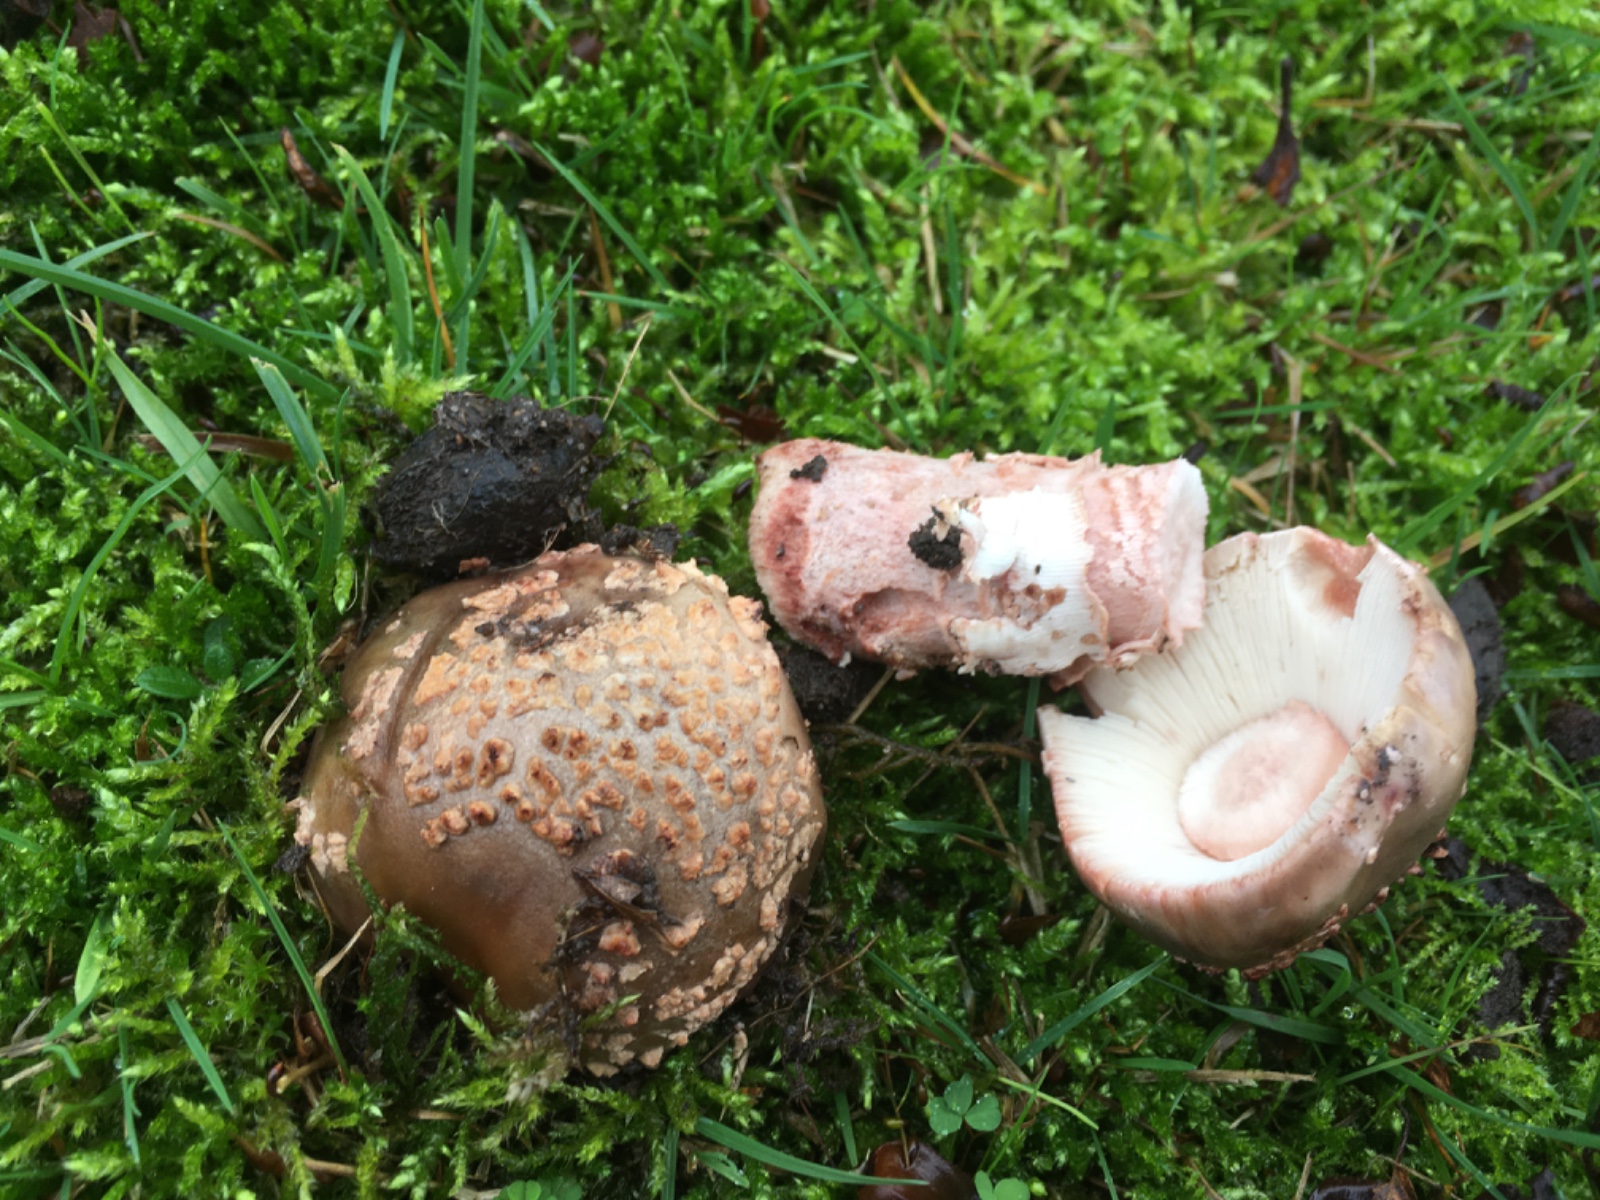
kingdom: Fungi
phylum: Basidiomycota
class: Agaricomycetes
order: Agaricales
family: Amanitaceae
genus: Amanita
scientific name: Amanita rubescens
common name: rødmende fluesvamp
